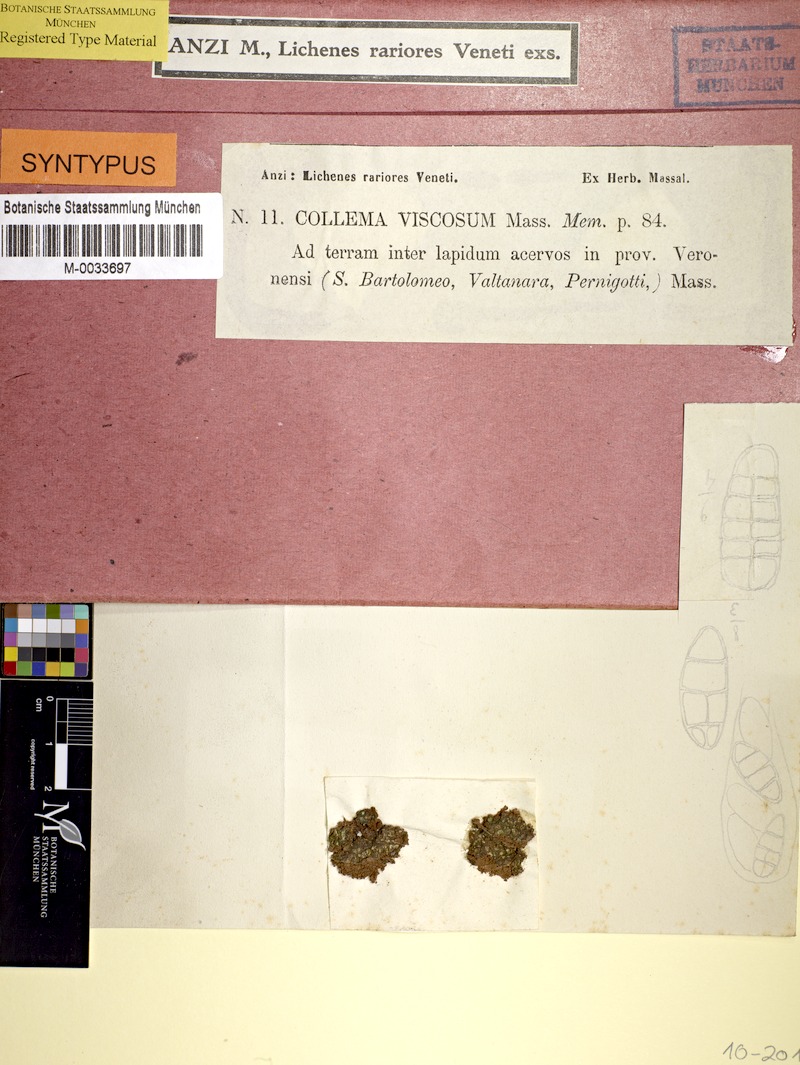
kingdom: Fungi
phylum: Ascomycota
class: Lecanoromycetes
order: Peltigerales
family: Collemataceae
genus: Enchylium
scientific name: Enchylium limosum
